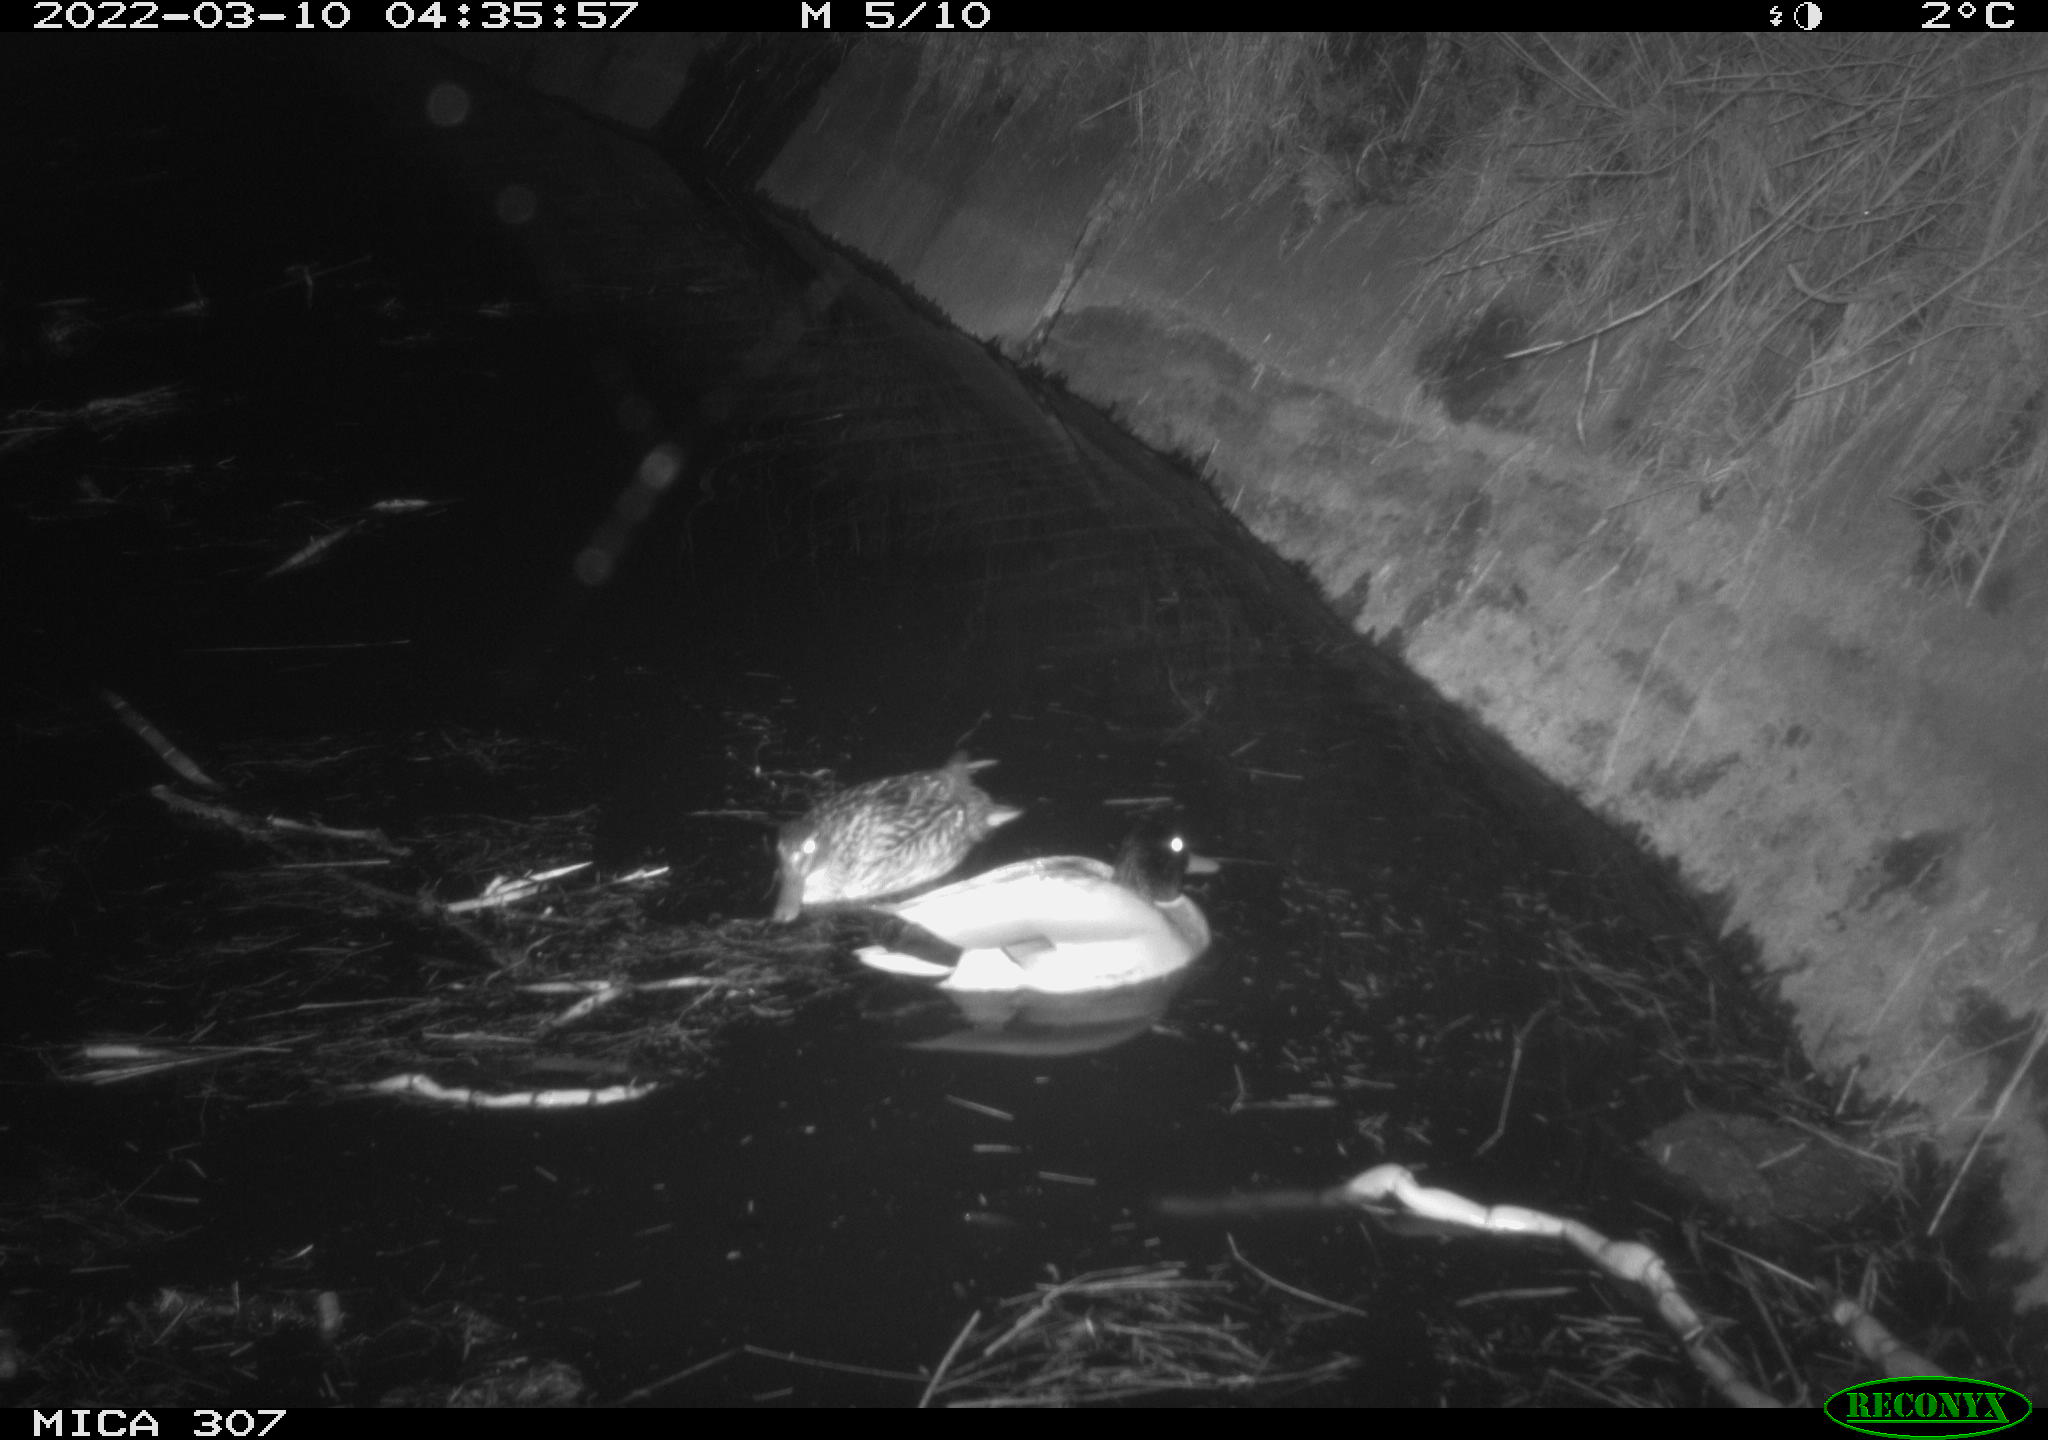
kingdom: Animalia
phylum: Chordata
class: Aves
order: Anseriformes
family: Anatidae
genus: Anas
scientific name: Anas platyrhynchos
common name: Mallard
